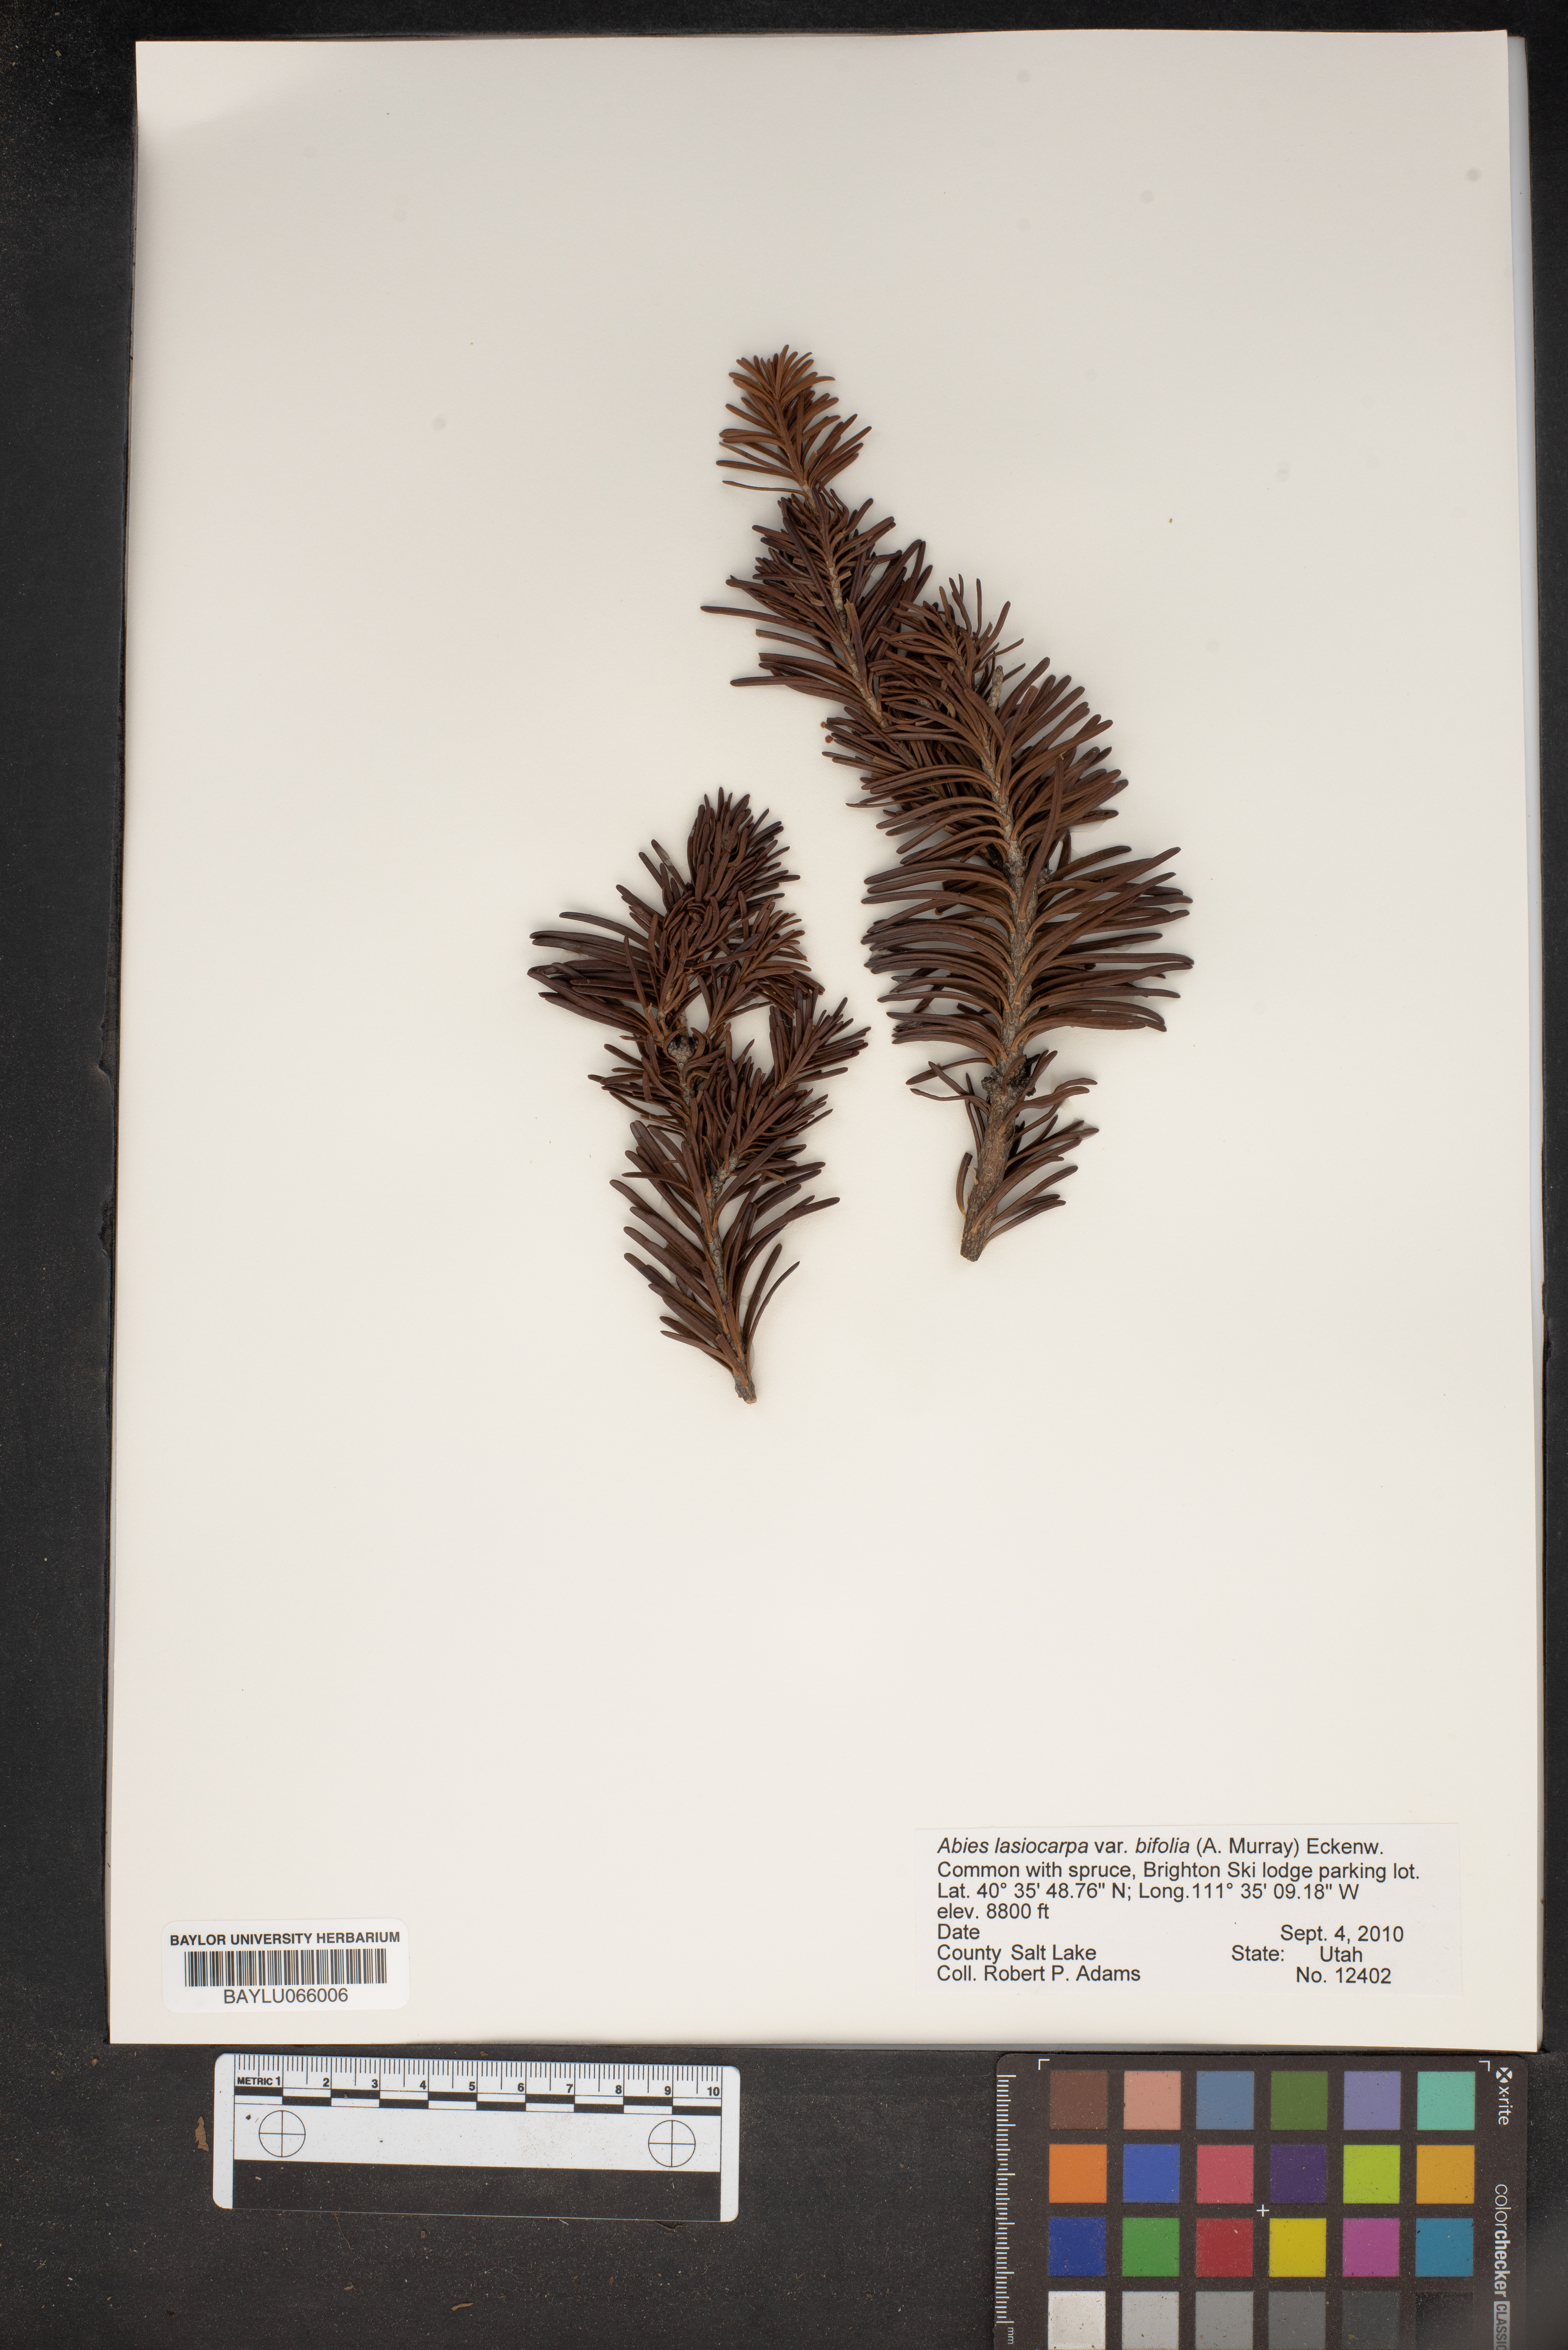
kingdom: Plantae
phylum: Tracheophyta
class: Pinopsida
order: Pinales
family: Pinaceae
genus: Abies
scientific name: Abies lasiocarpa
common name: Subalpine fir
